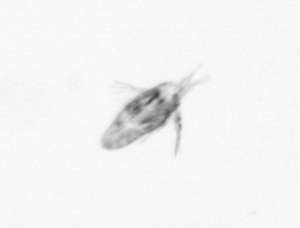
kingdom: Animalia
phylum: Arthropoda
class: Copepoda
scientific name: Copepoda
